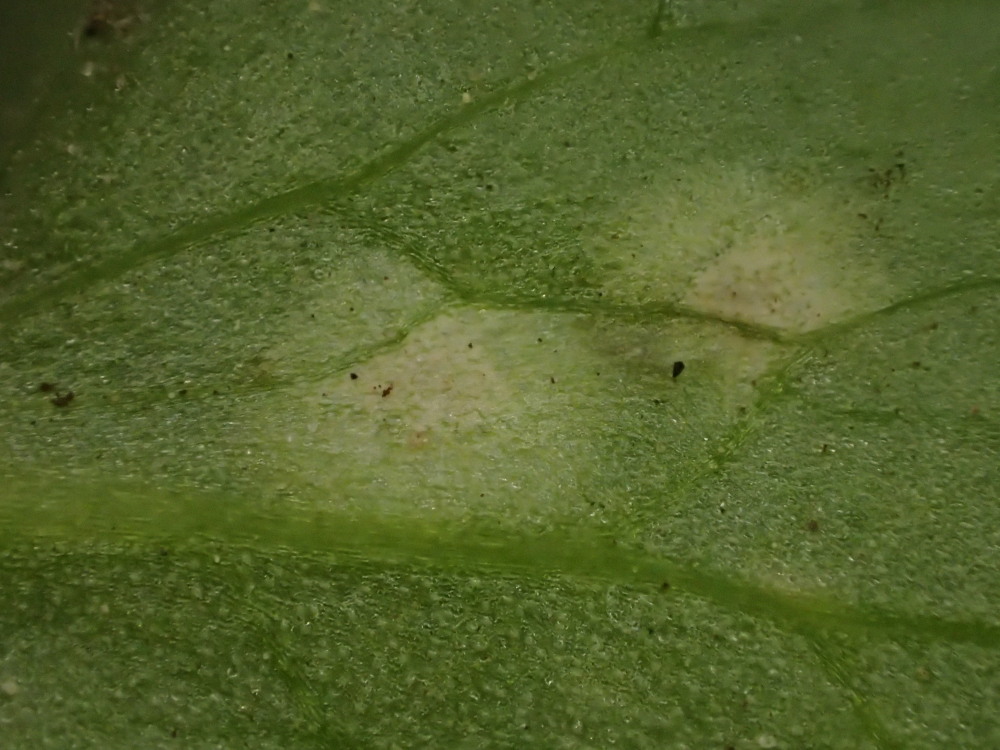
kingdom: Fungi
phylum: Basidiomycota
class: Exobasidiomycetes
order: Entylomatales
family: Entylomataceae
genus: Entyloma
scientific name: Entyloma ficariae
